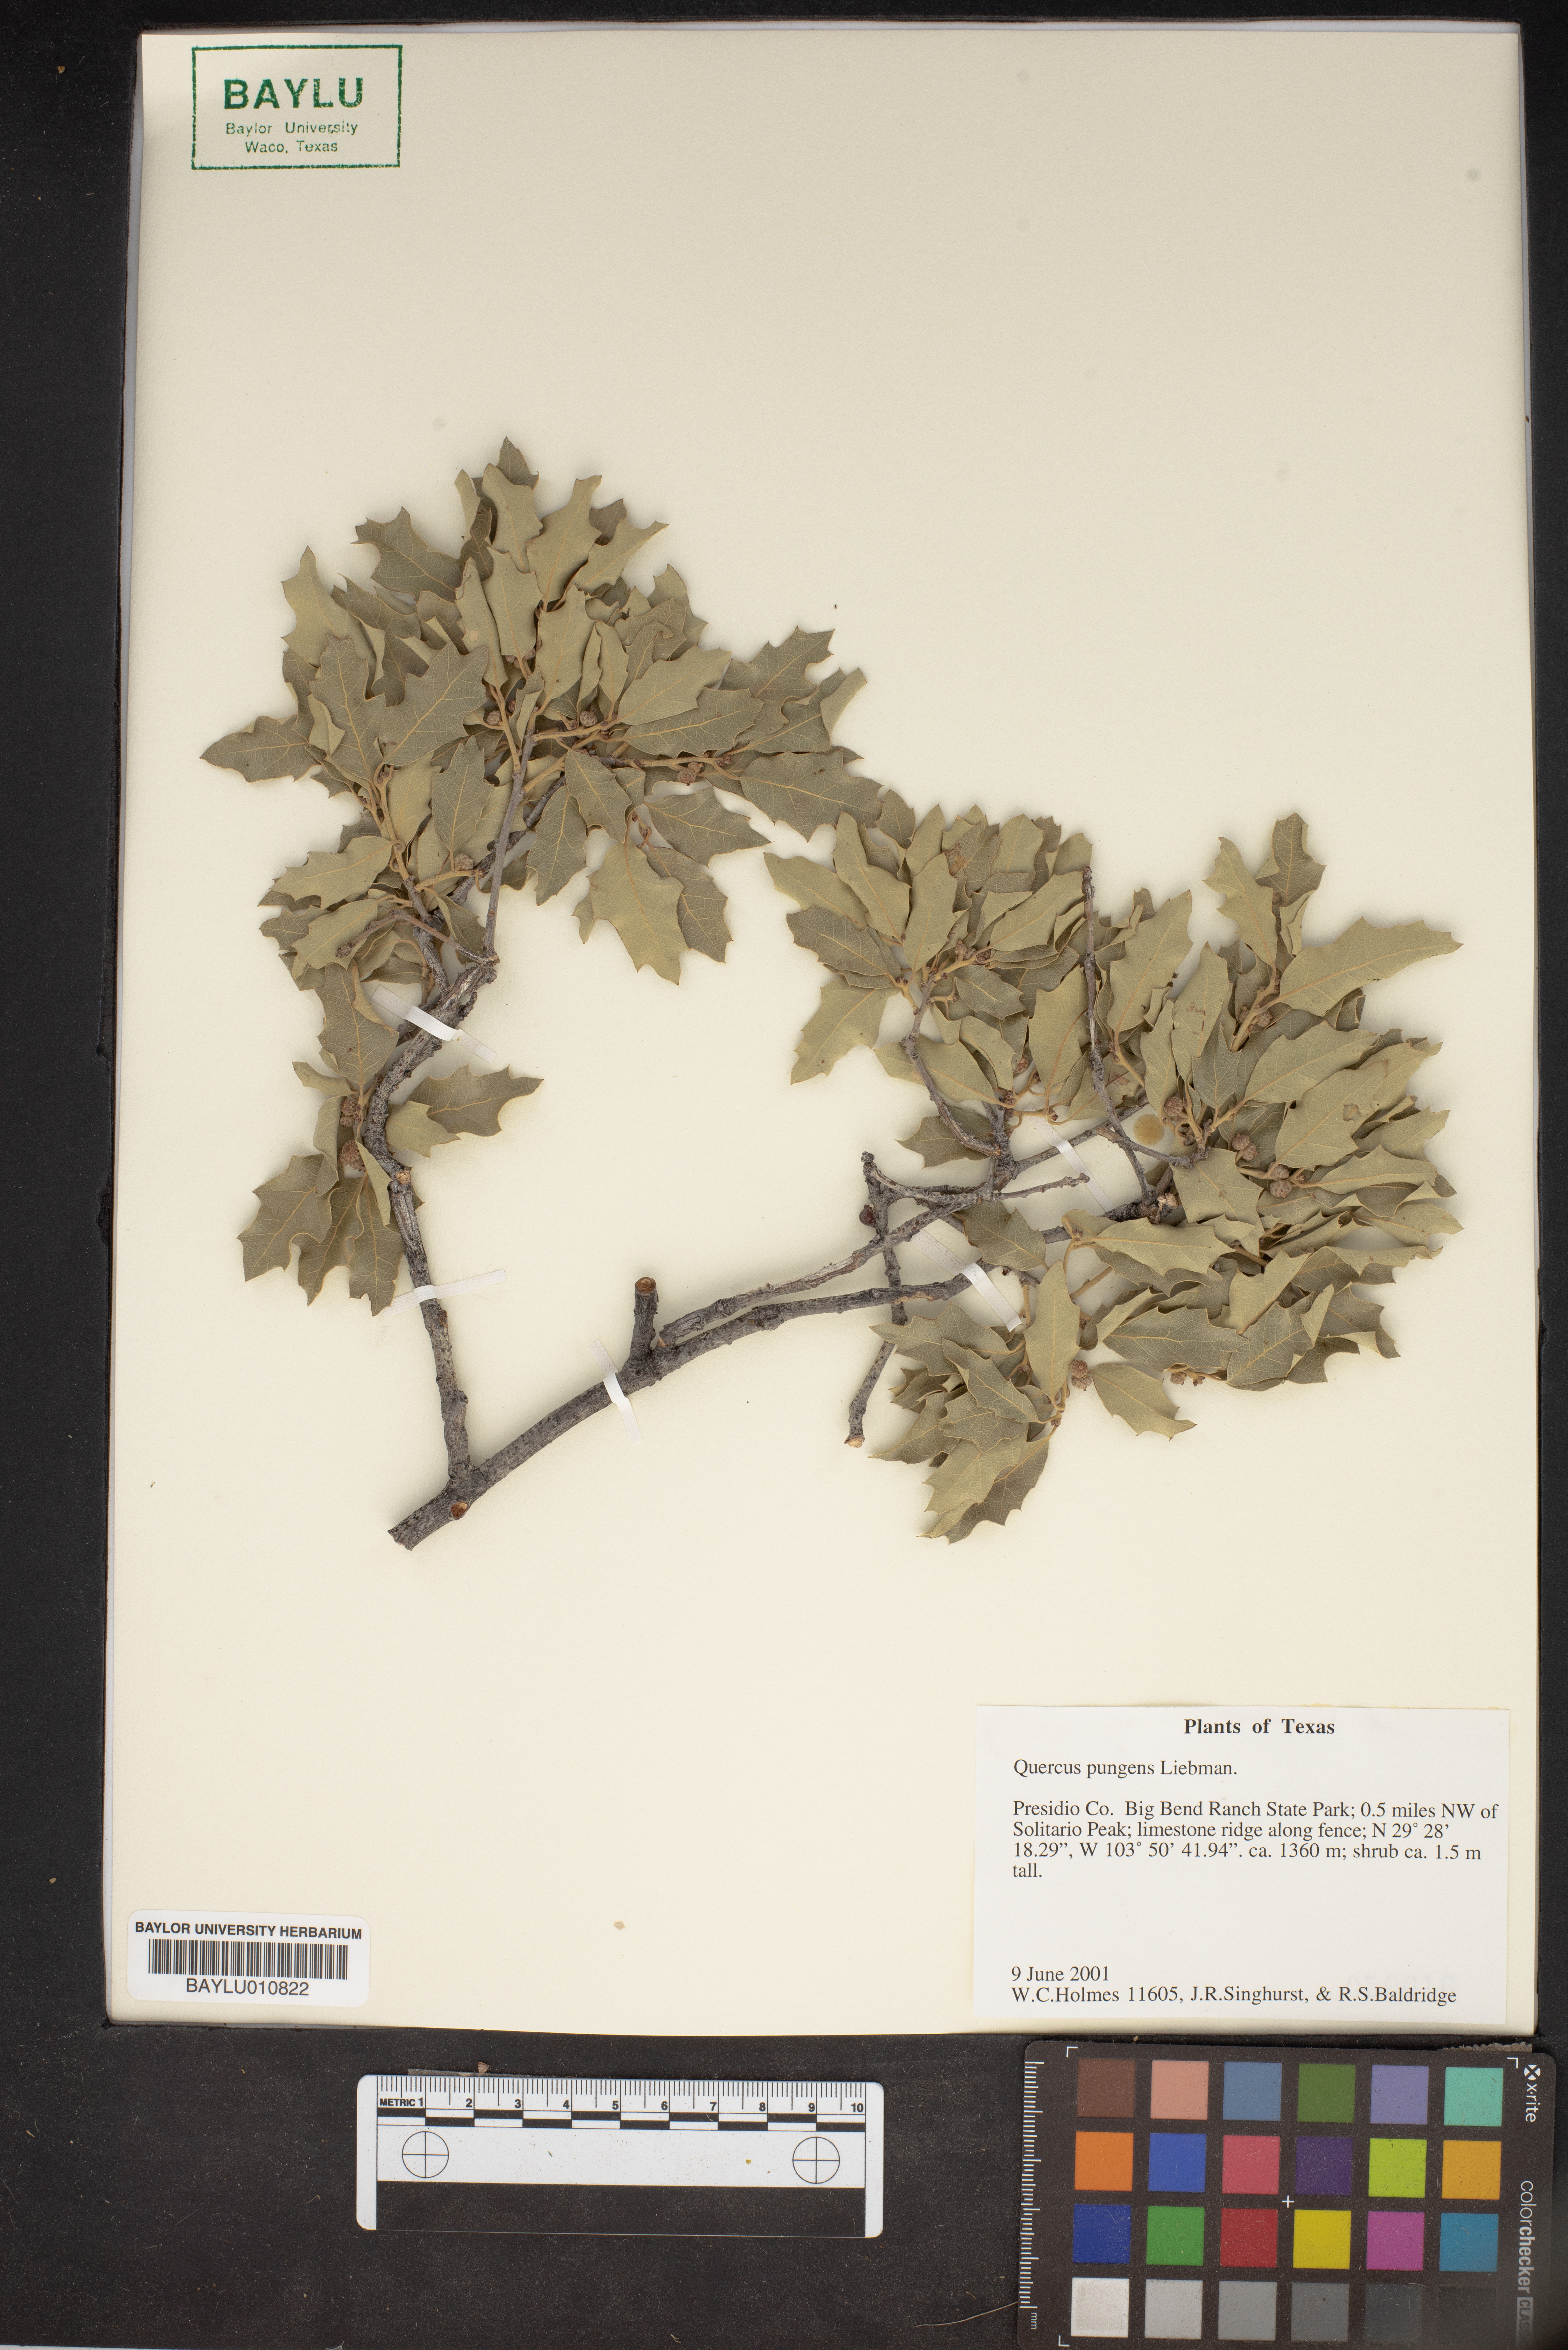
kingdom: Plantae
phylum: Tracheophyta
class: Magnoliopsida
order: Fagales
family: Fagaceae
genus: Quercus
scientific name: Quercus pungens
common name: Pungent oak
